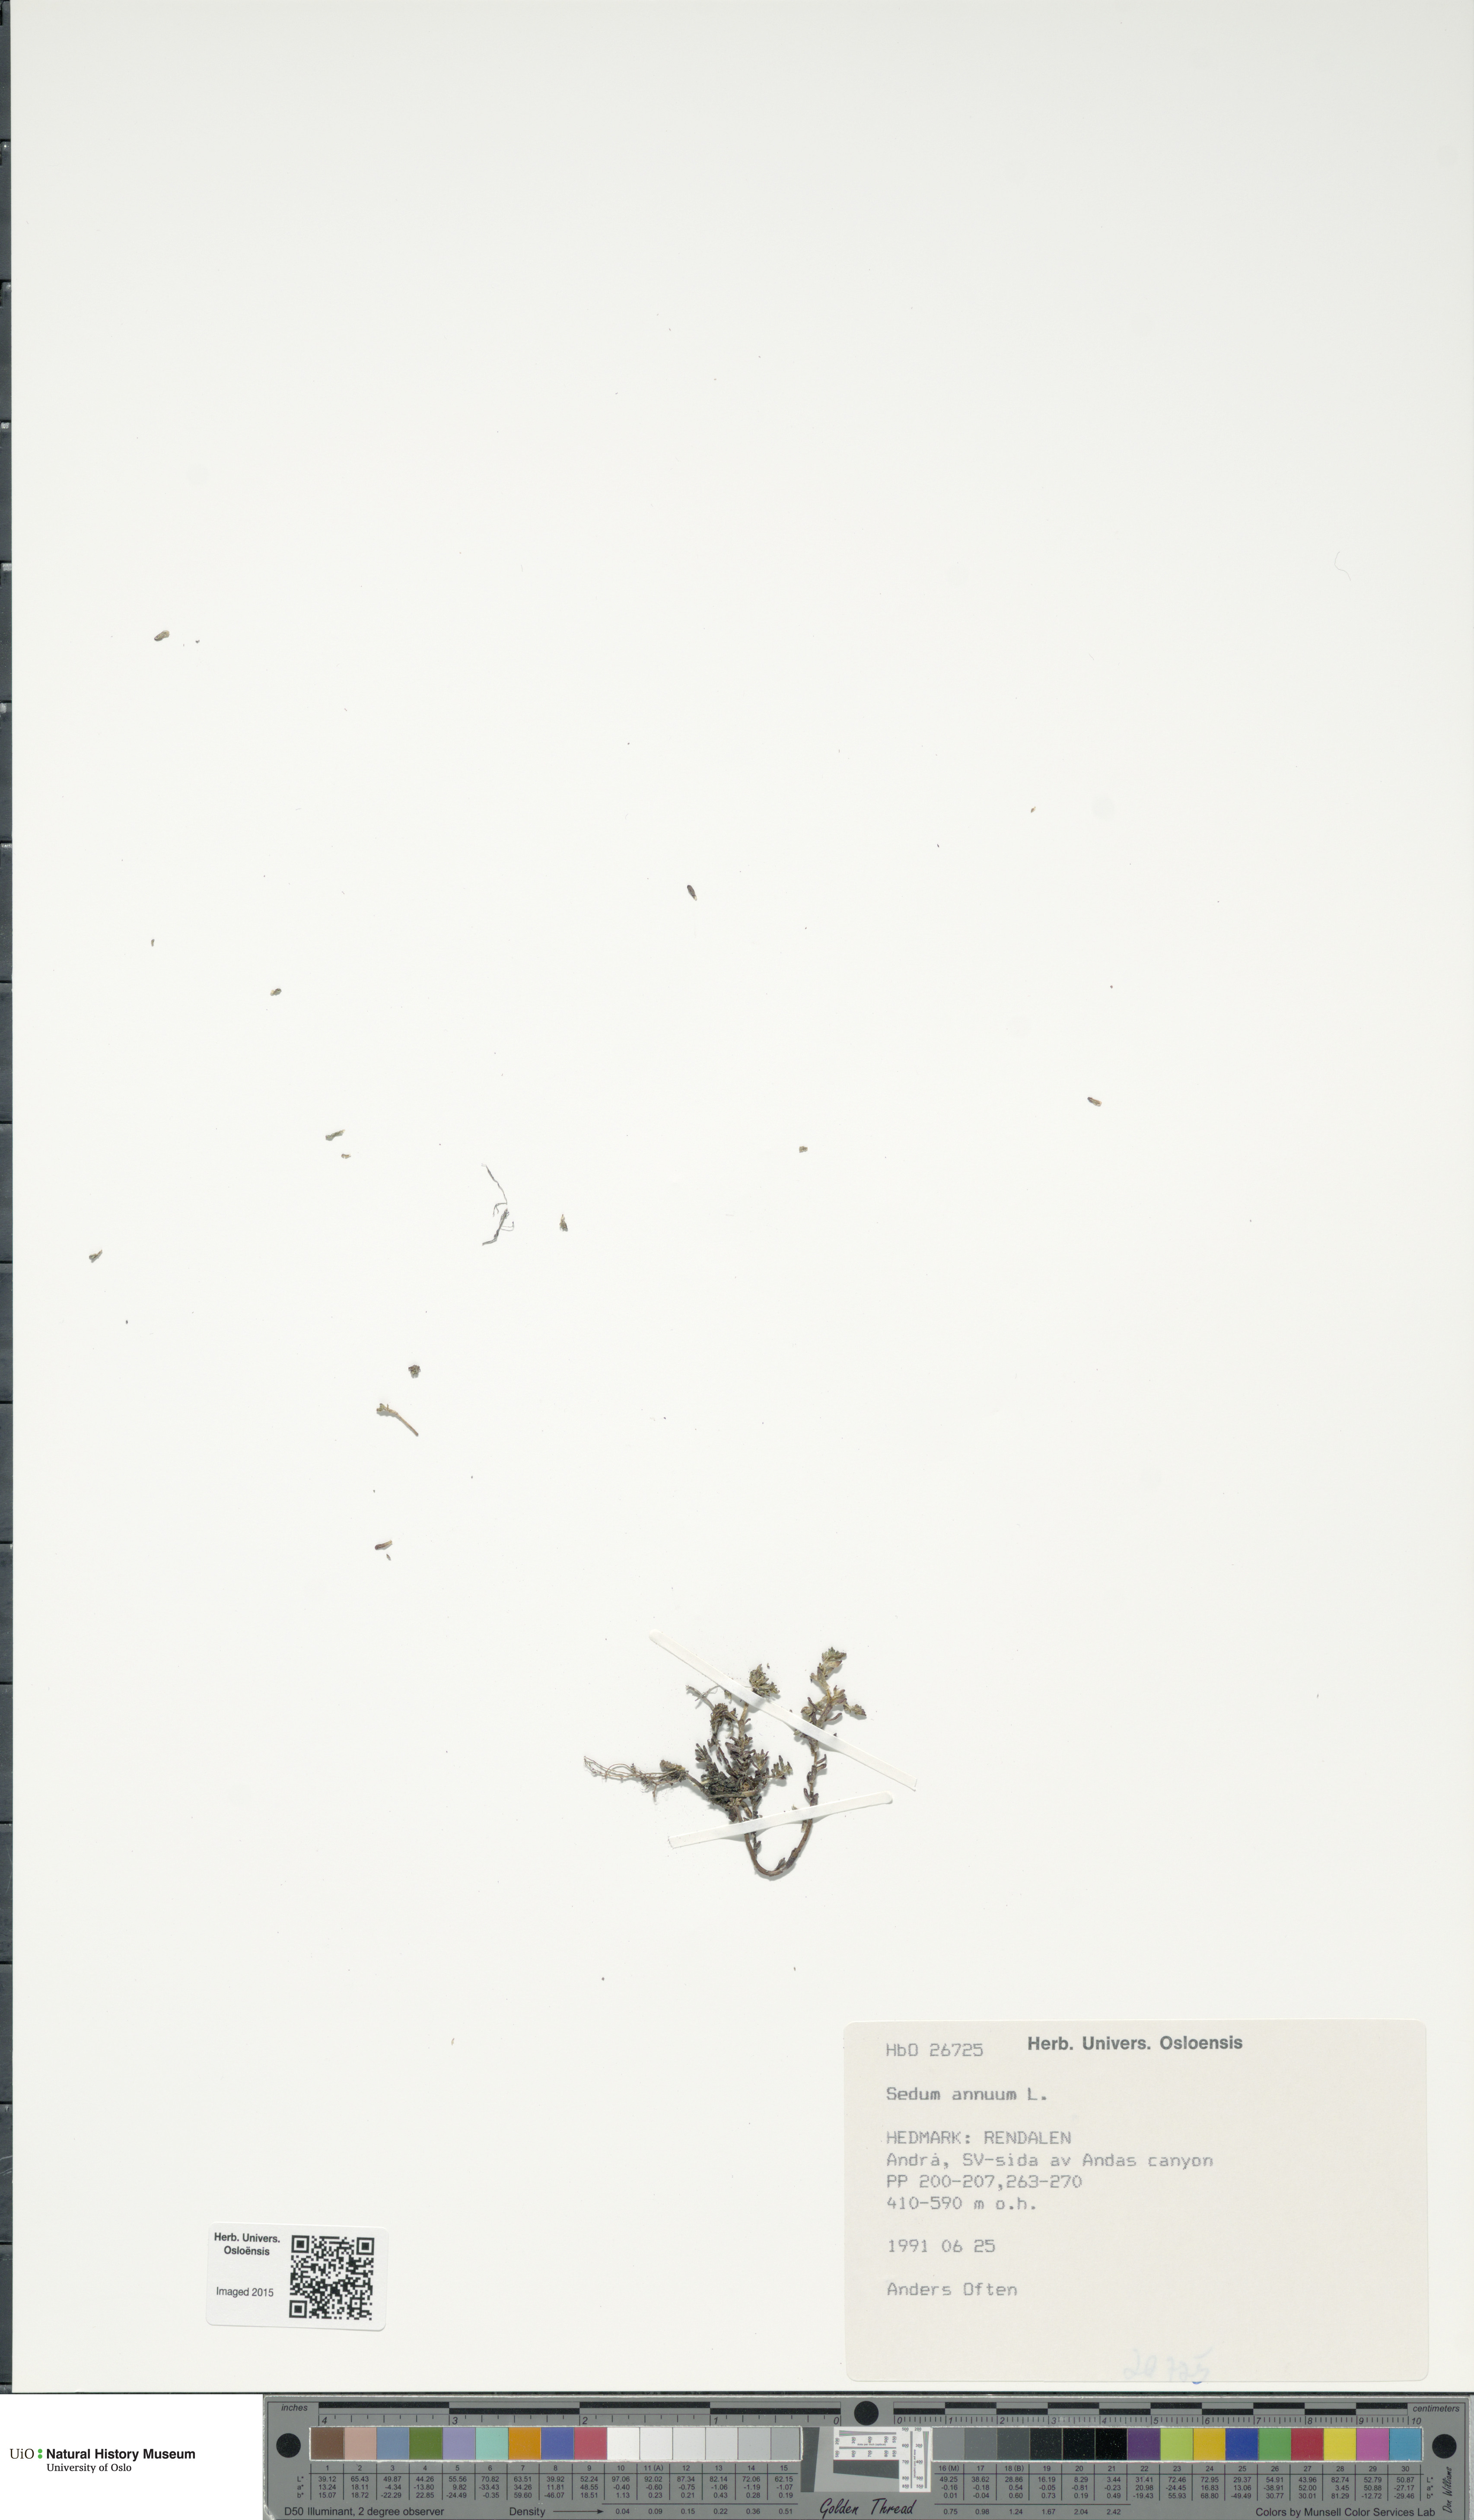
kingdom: Plantae
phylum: Tracheophyta
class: Magnoliopsida
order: Saxifragales
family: Crassulaceae
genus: Sedum
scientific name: Sedum annuum
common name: Annual stonecrop
